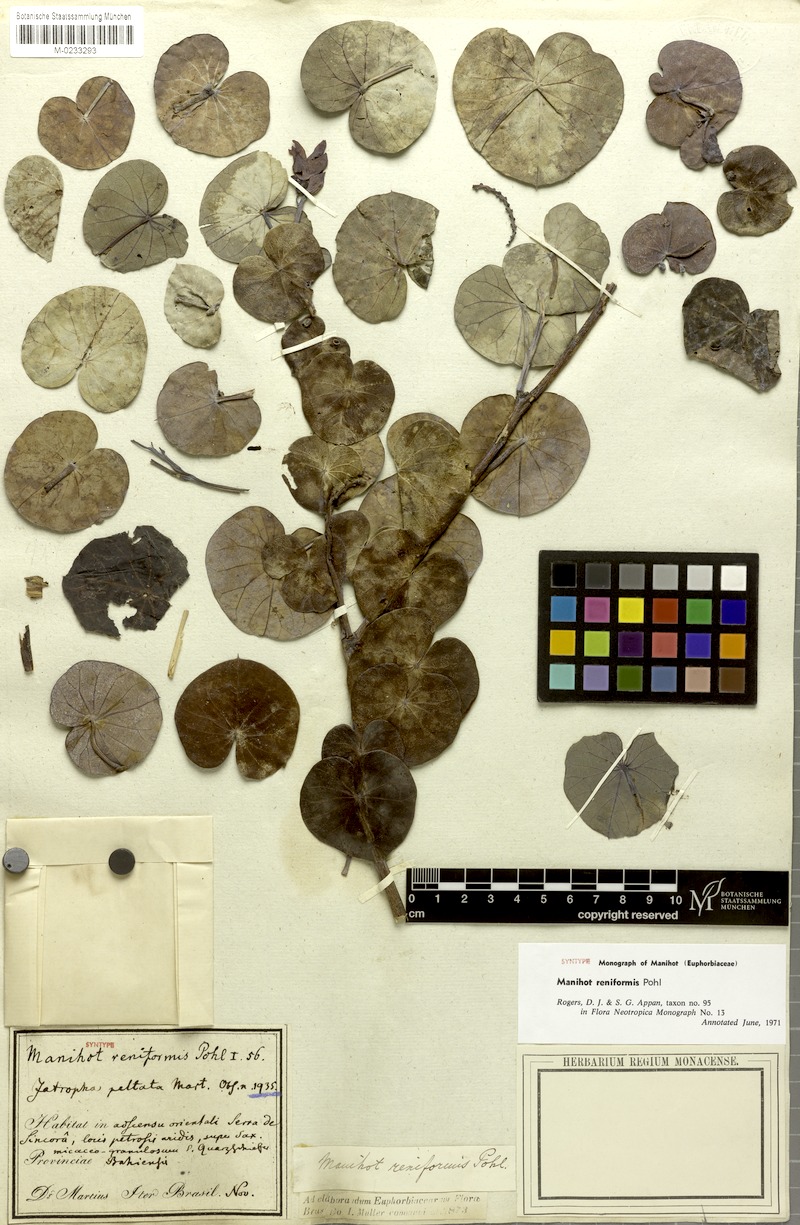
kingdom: Plantae
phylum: Tracheophyta
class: Magnoliopsida
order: Malpighiales
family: Euphorbiaceae
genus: Manihot
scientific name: Manihot reniformis
